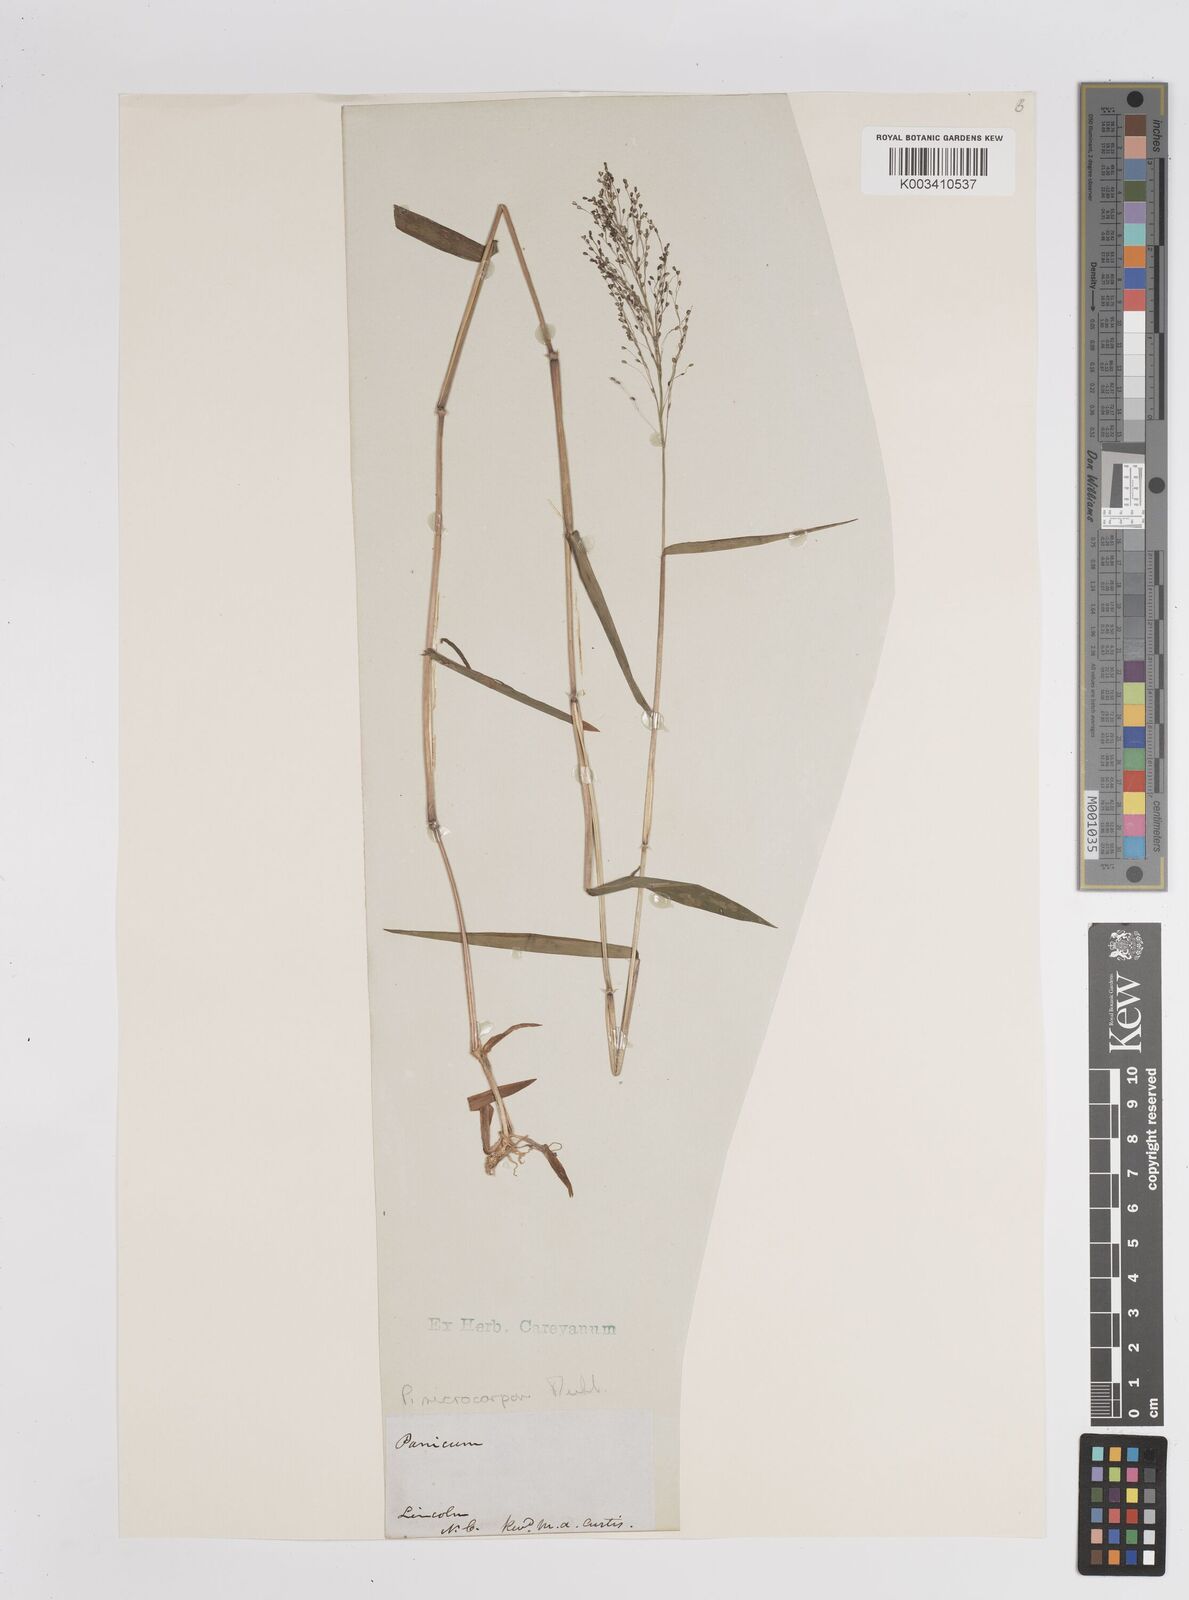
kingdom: Plantae
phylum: Tracheophyta
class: Liliopsida
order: Poales
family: Poaceae
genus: Dichanthelium
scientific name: Dichanthelium polyanthes
